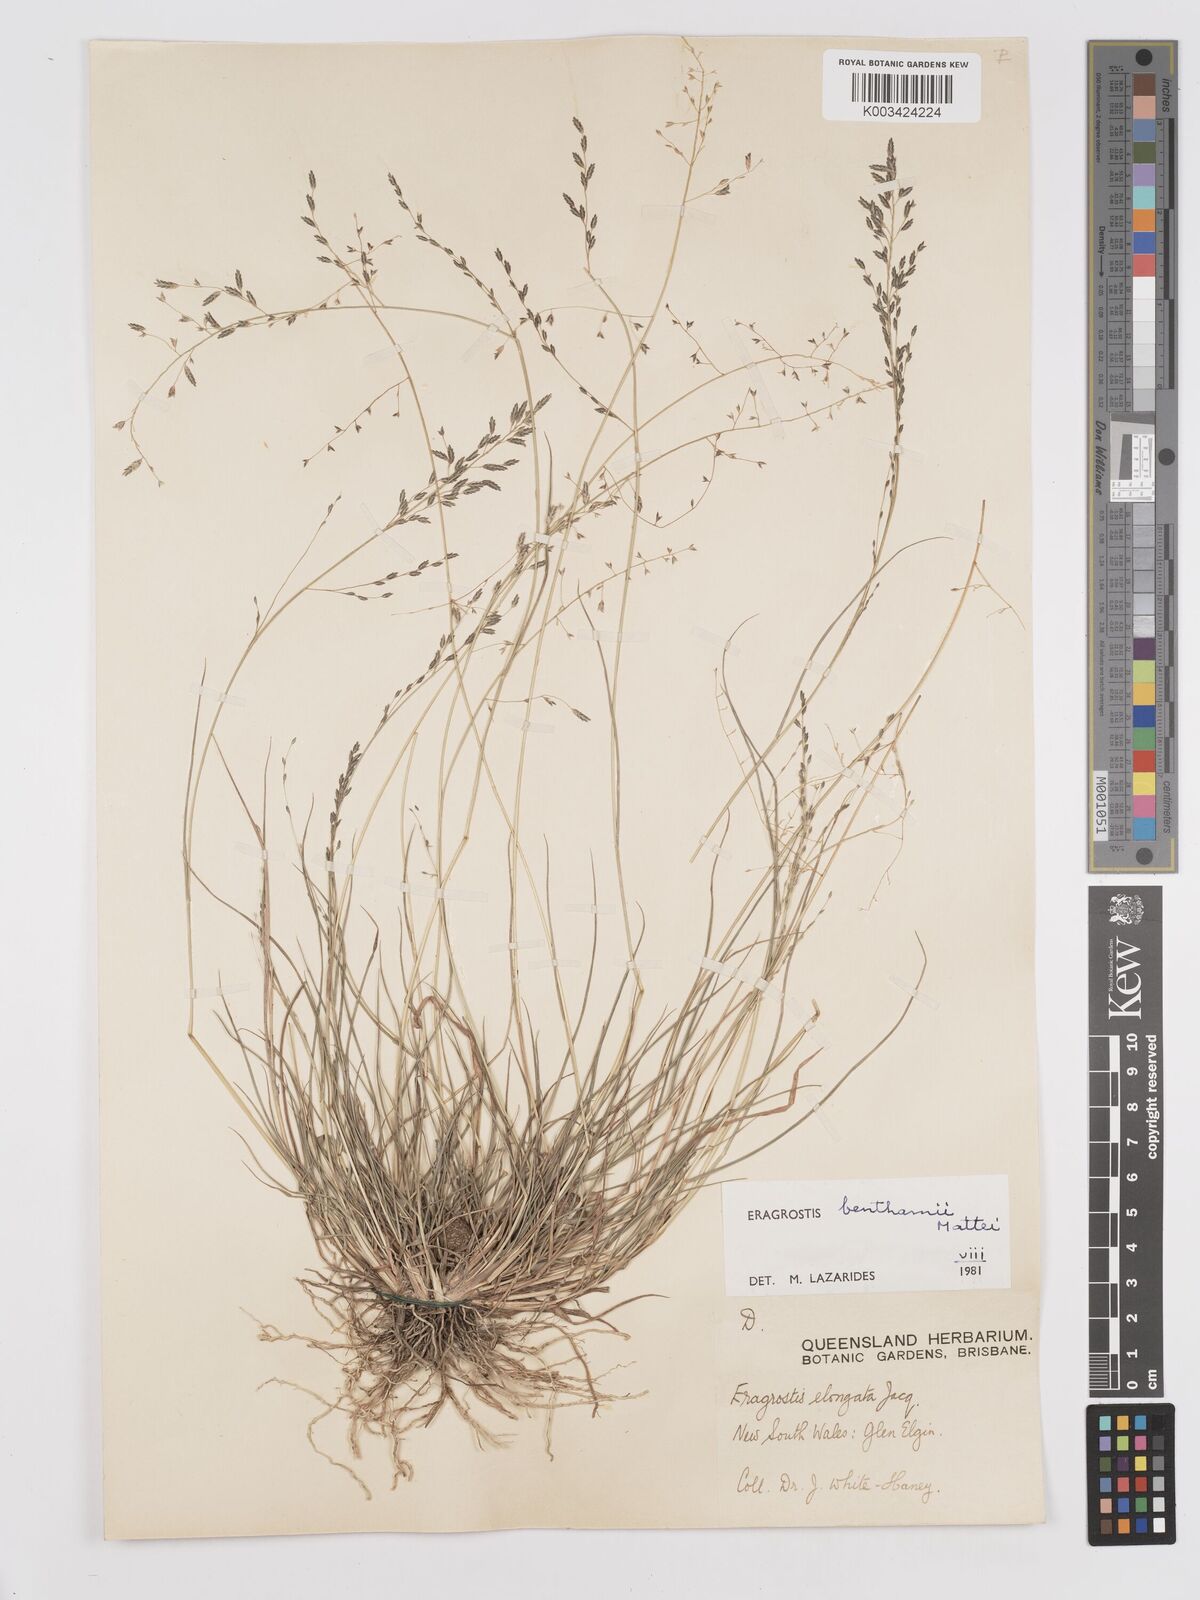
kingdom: Plantae
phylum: Tracheophyta
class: Liliopsida
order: Poales
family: Poaceae
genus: Eragrostis
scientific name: Eragrostis brownii
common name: Lovegrass
